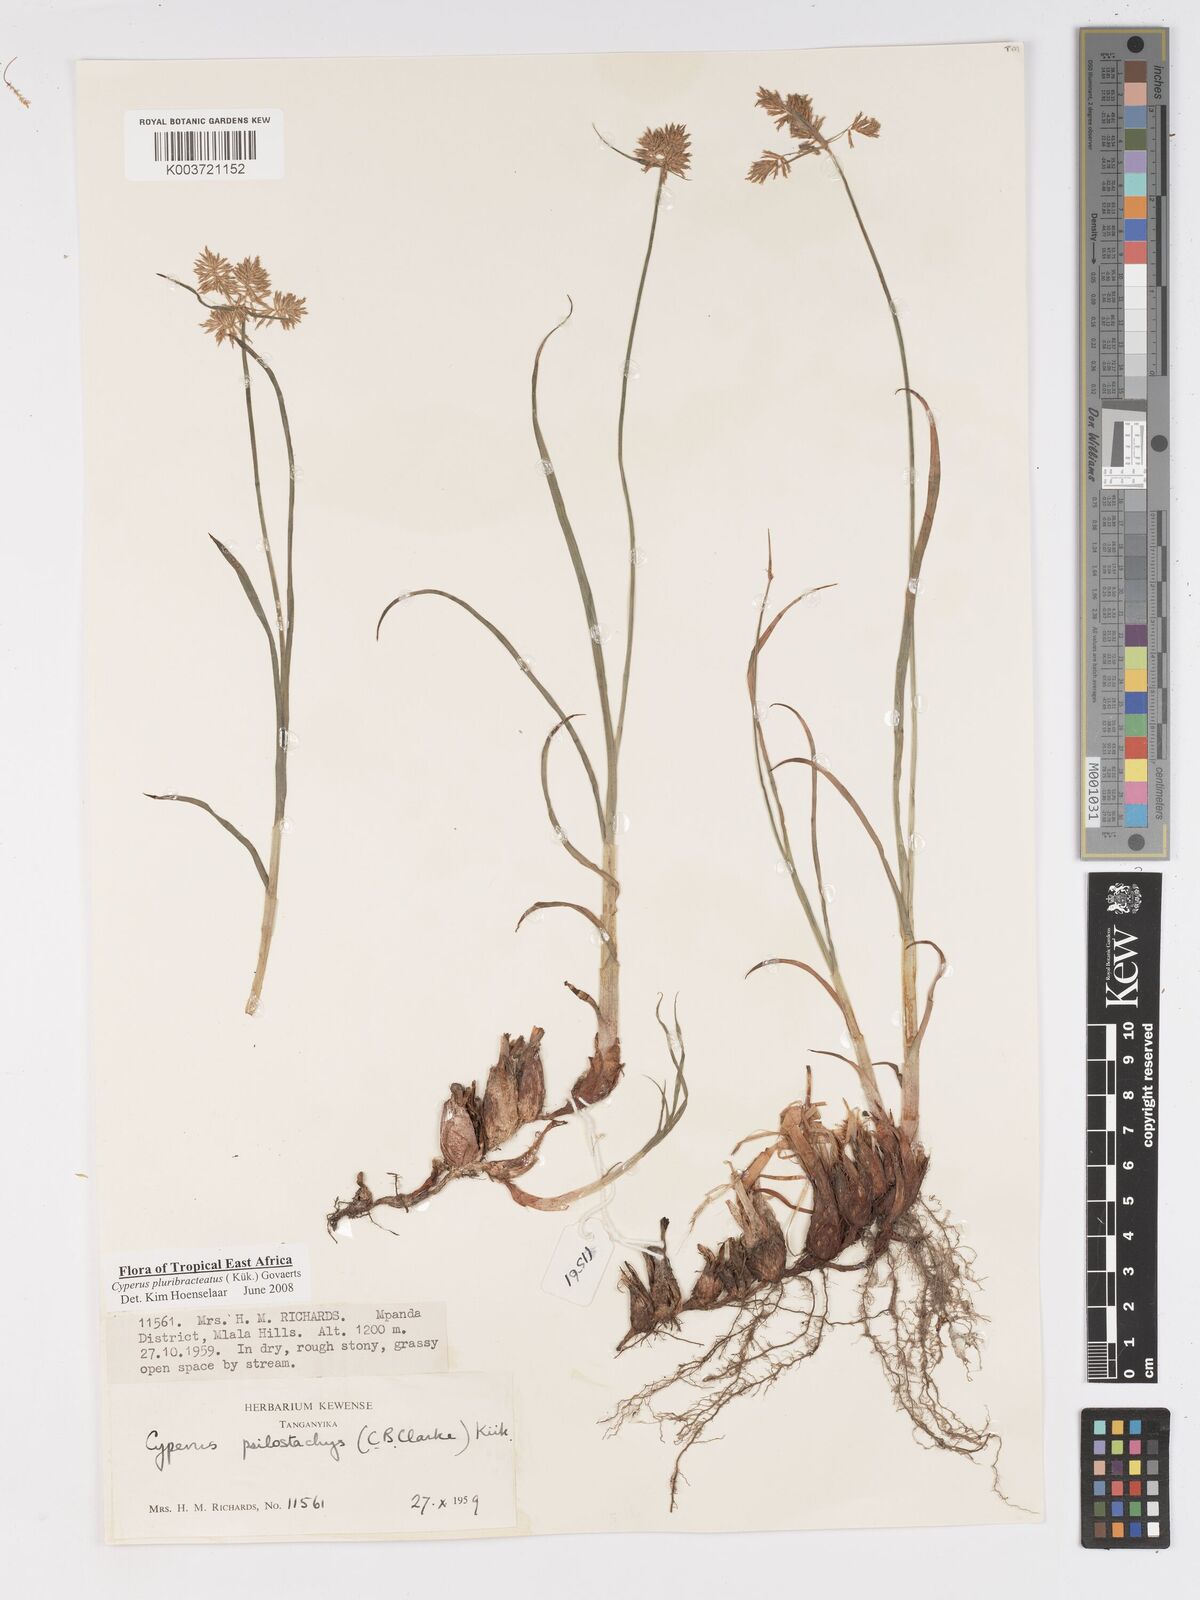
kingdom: Plantae
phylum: Tracheophyta
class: Liliopsida
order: Poales
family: Cyperaceae
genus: Cyperus
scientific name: Cyperus trigonellus
